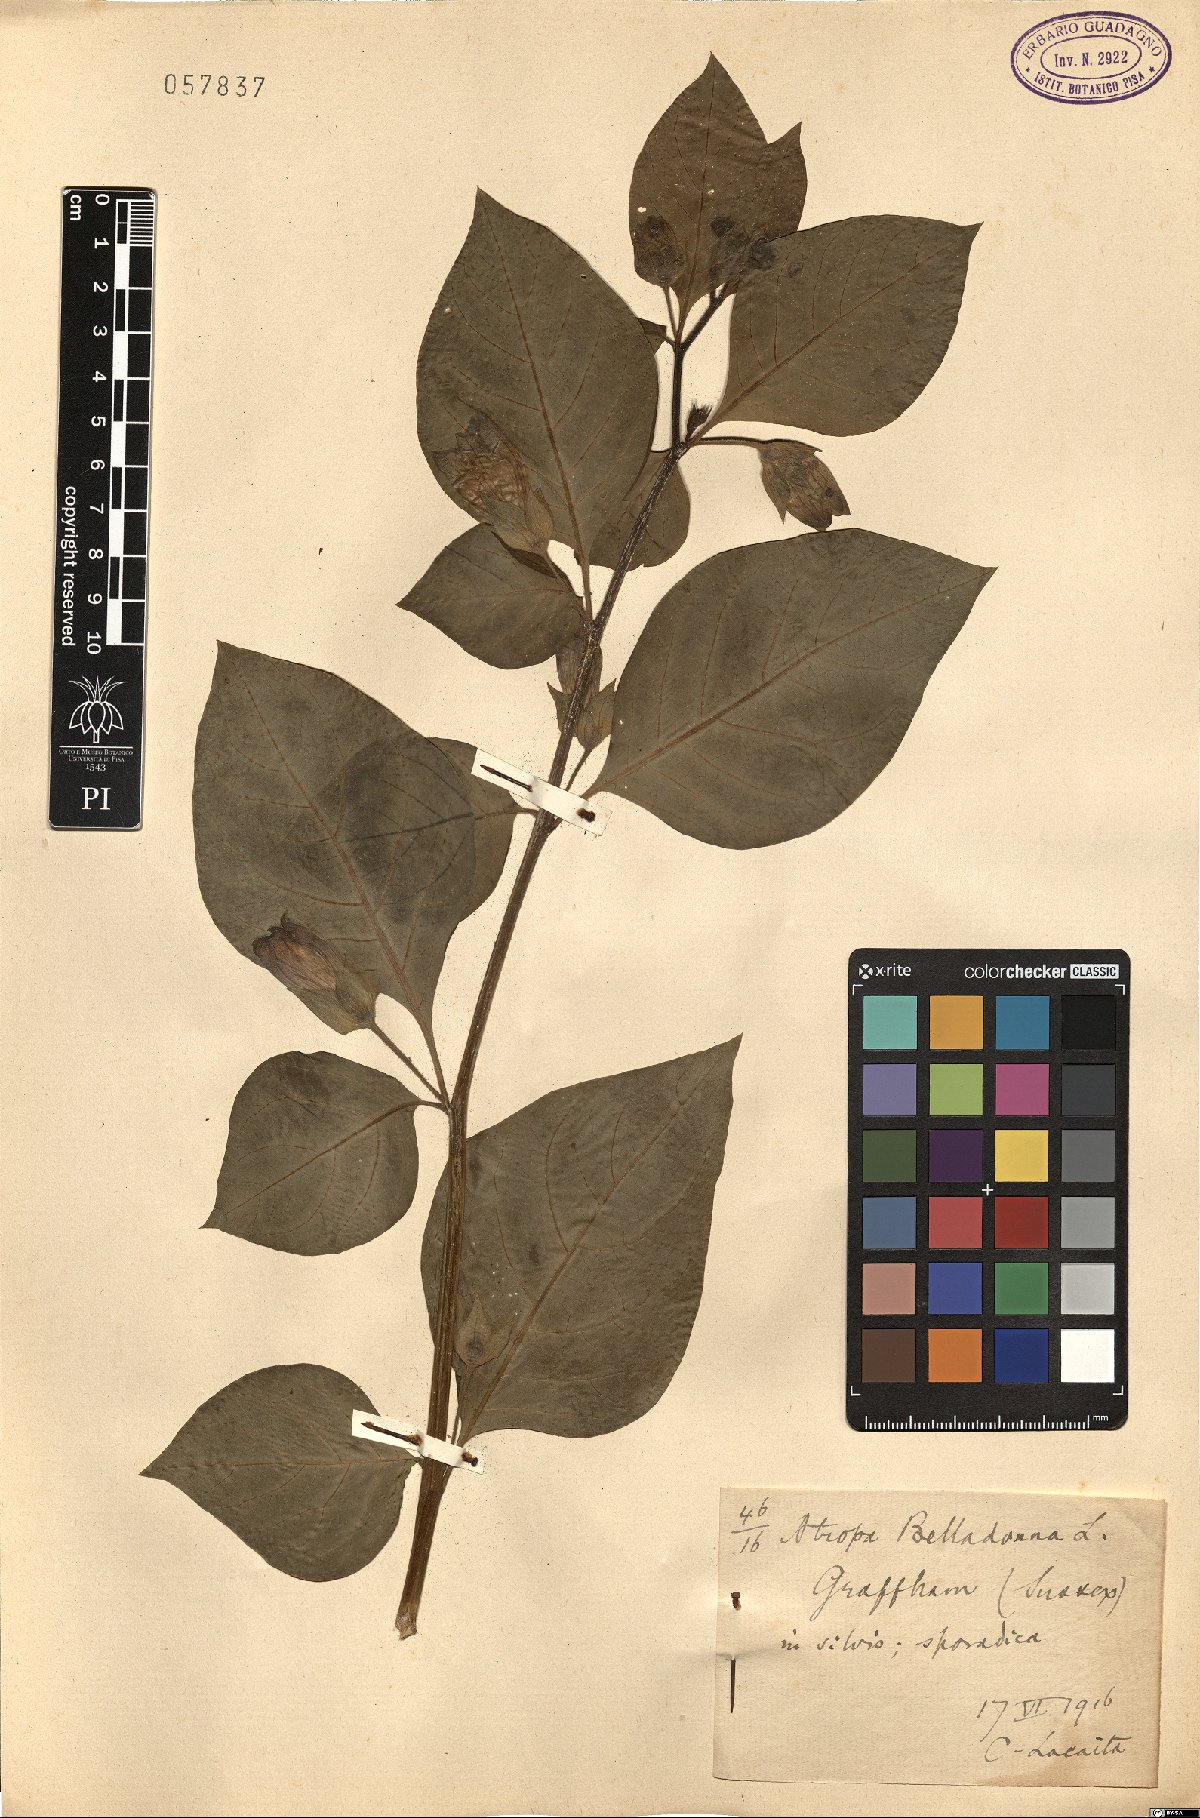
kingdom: Plantae
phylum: Tracheophyta
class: Magnoliopsida
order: Solanales
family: Solanaceae
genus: Atropa
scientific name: Atropa belladonna
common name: Deadly nightshade
